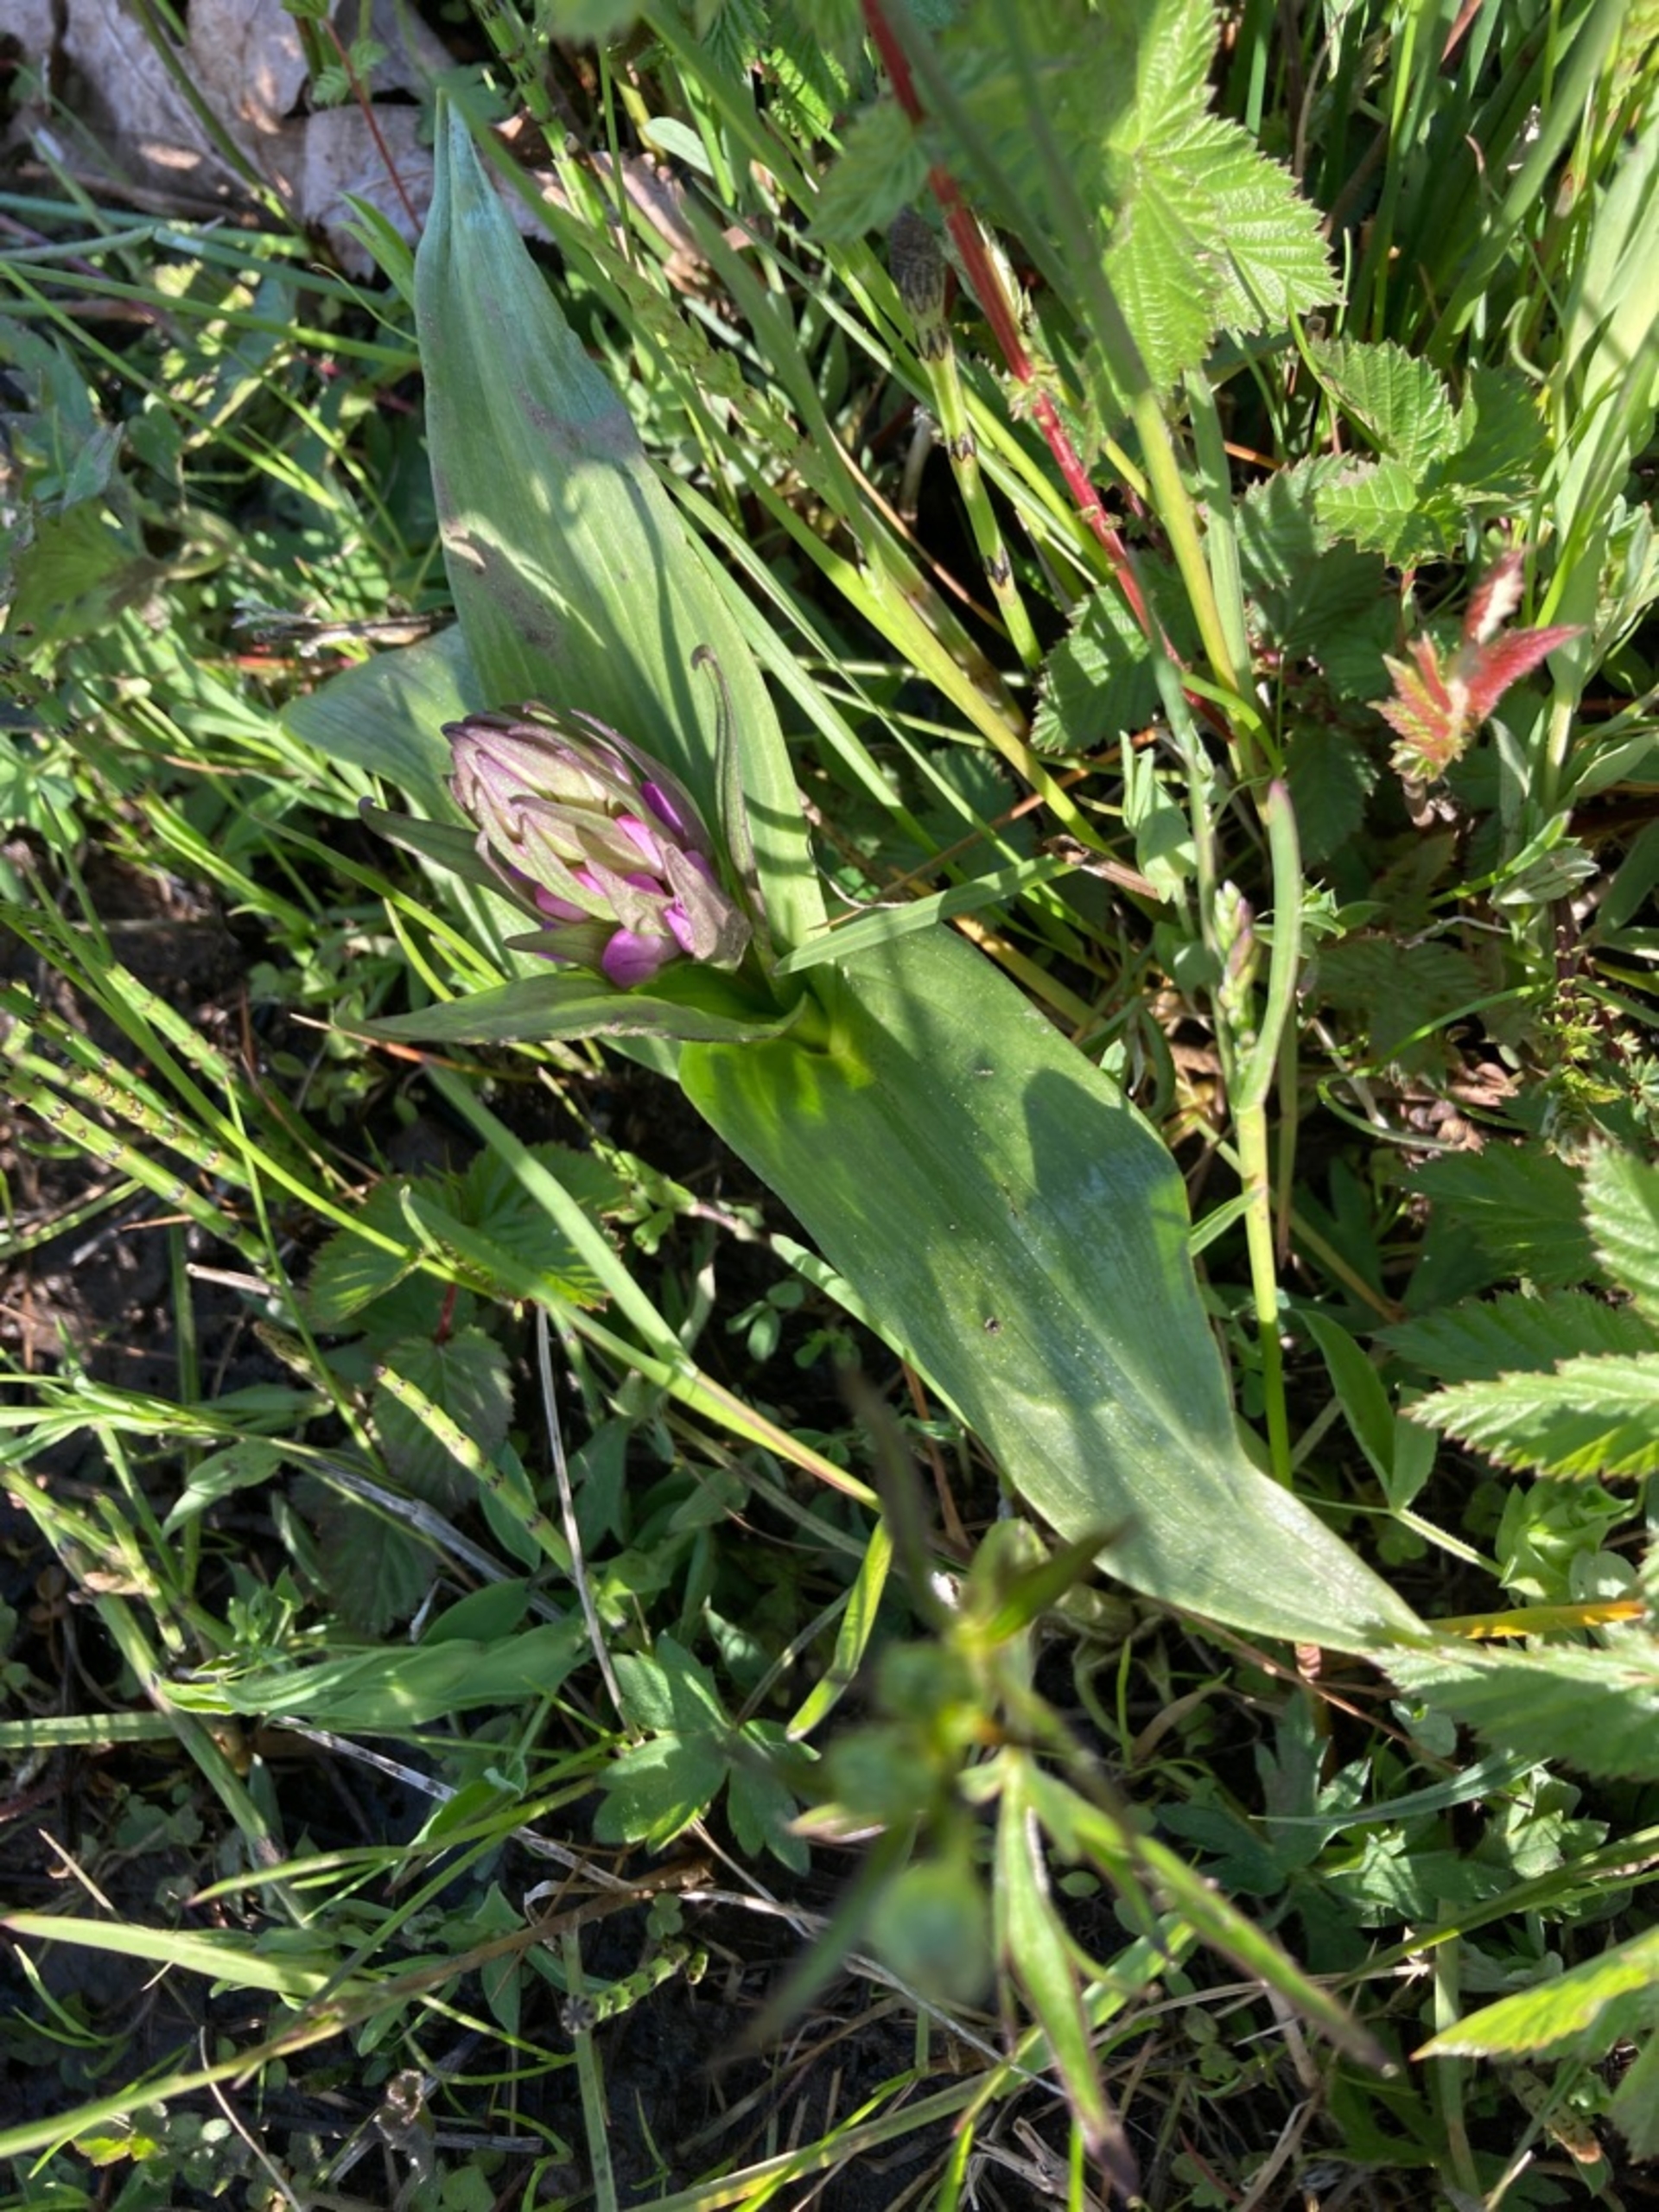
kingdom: Plantae
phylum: Tracheophyta
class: Liliopsida
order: Asparagales
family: Orchidaceae
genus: Dactylorhiza
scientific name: Dactylorhiza majalis
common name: Maj-gøgeurt
